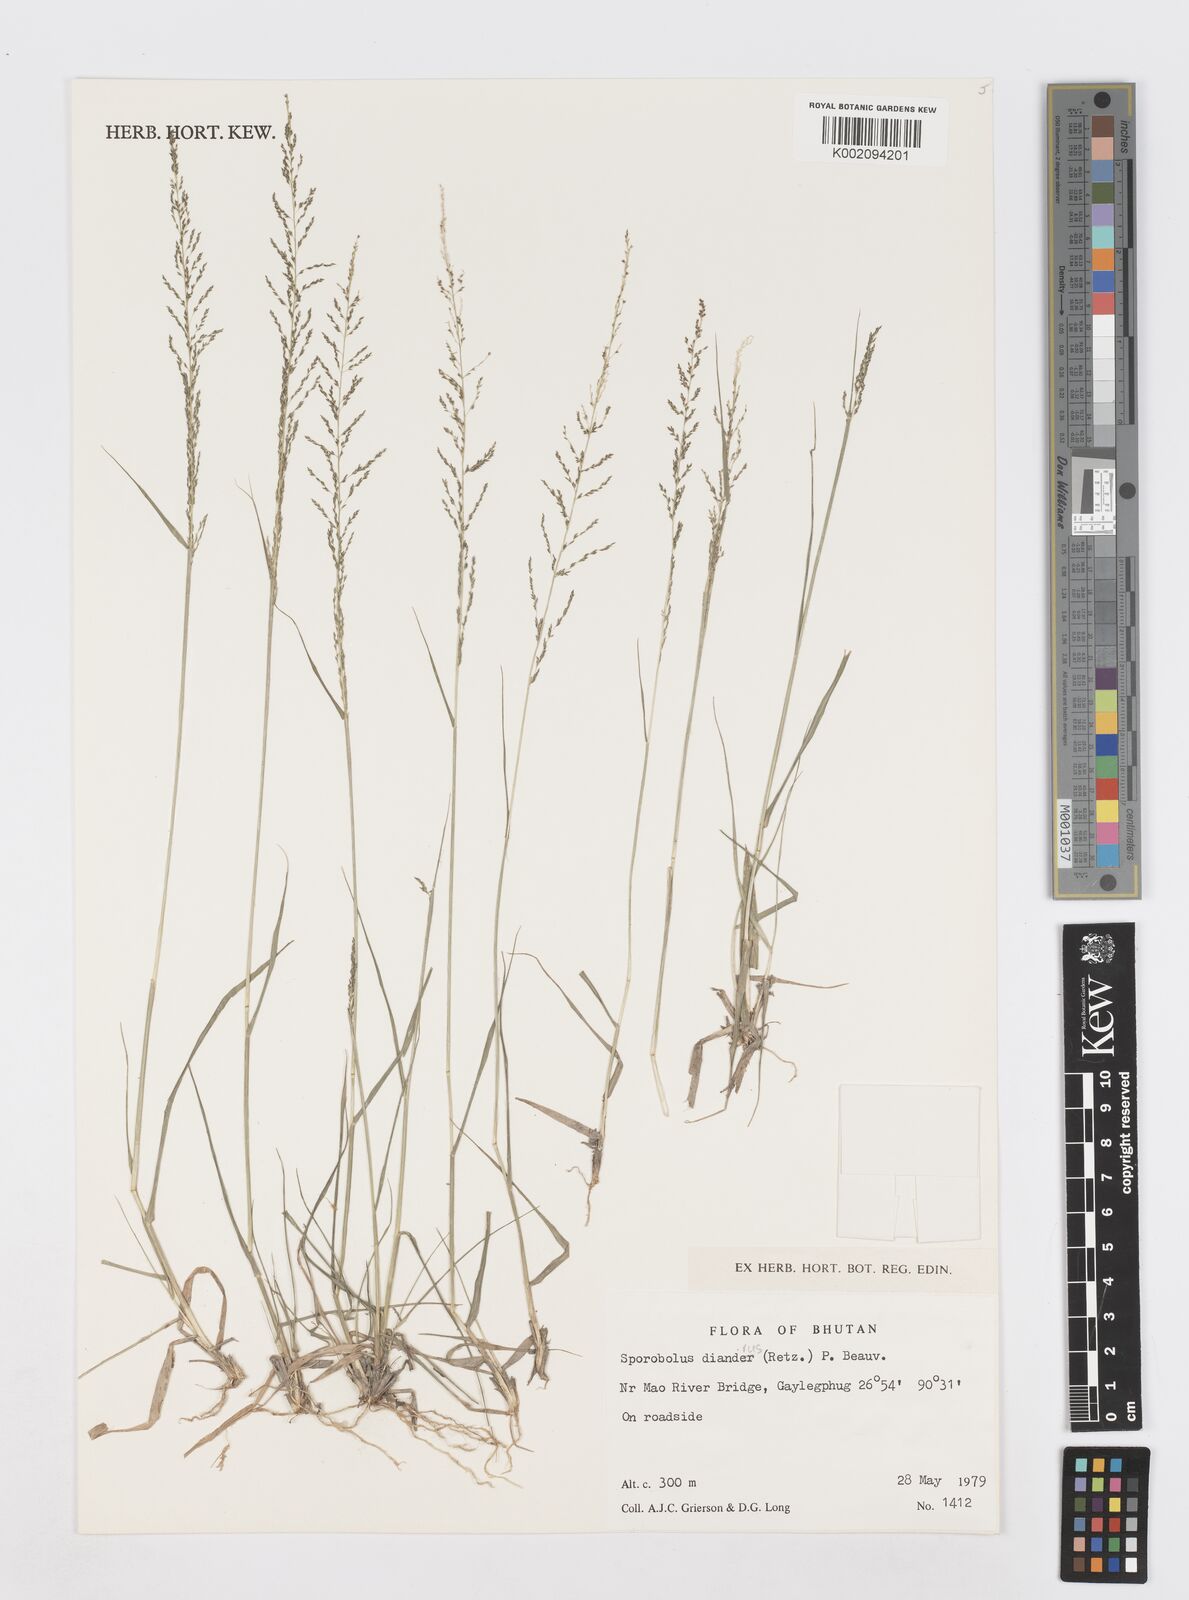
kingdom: Plantae
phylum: Tracheophyta
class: Liliopsida
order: Poales
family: Poaceae
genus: Sporobolus
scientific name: Sporobolus diandrus
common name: Tussock dropseed
